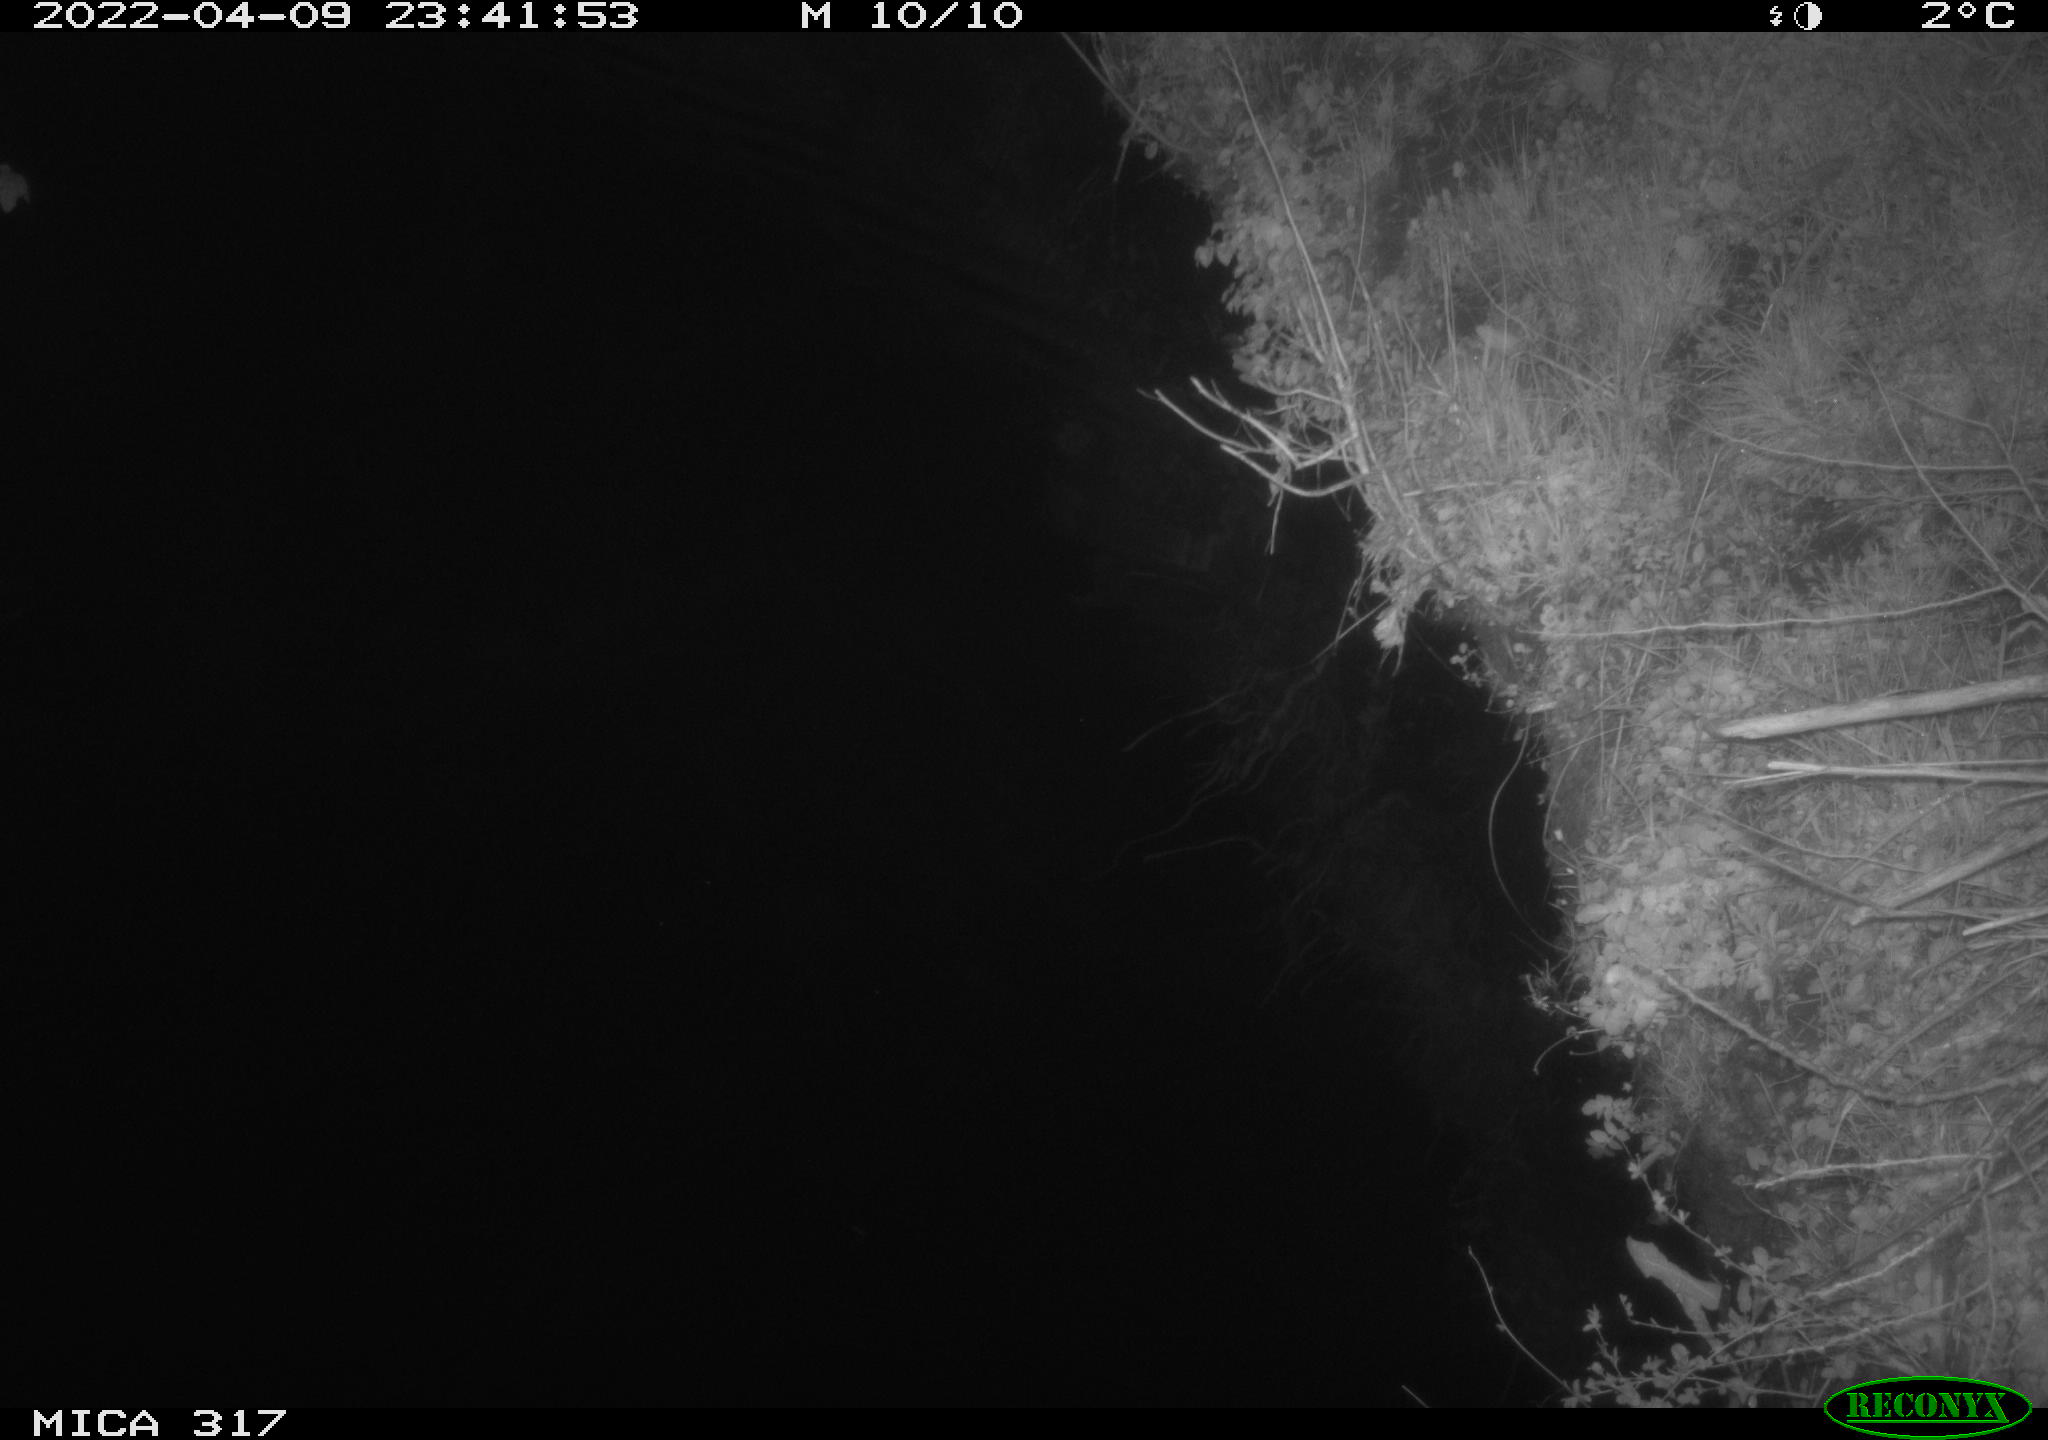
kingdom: Animalia
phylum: Chordata
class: Aves
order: Anseriformes
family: Anatidae
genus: Anas
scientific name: Anas platyrhynchos
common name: Mallard
